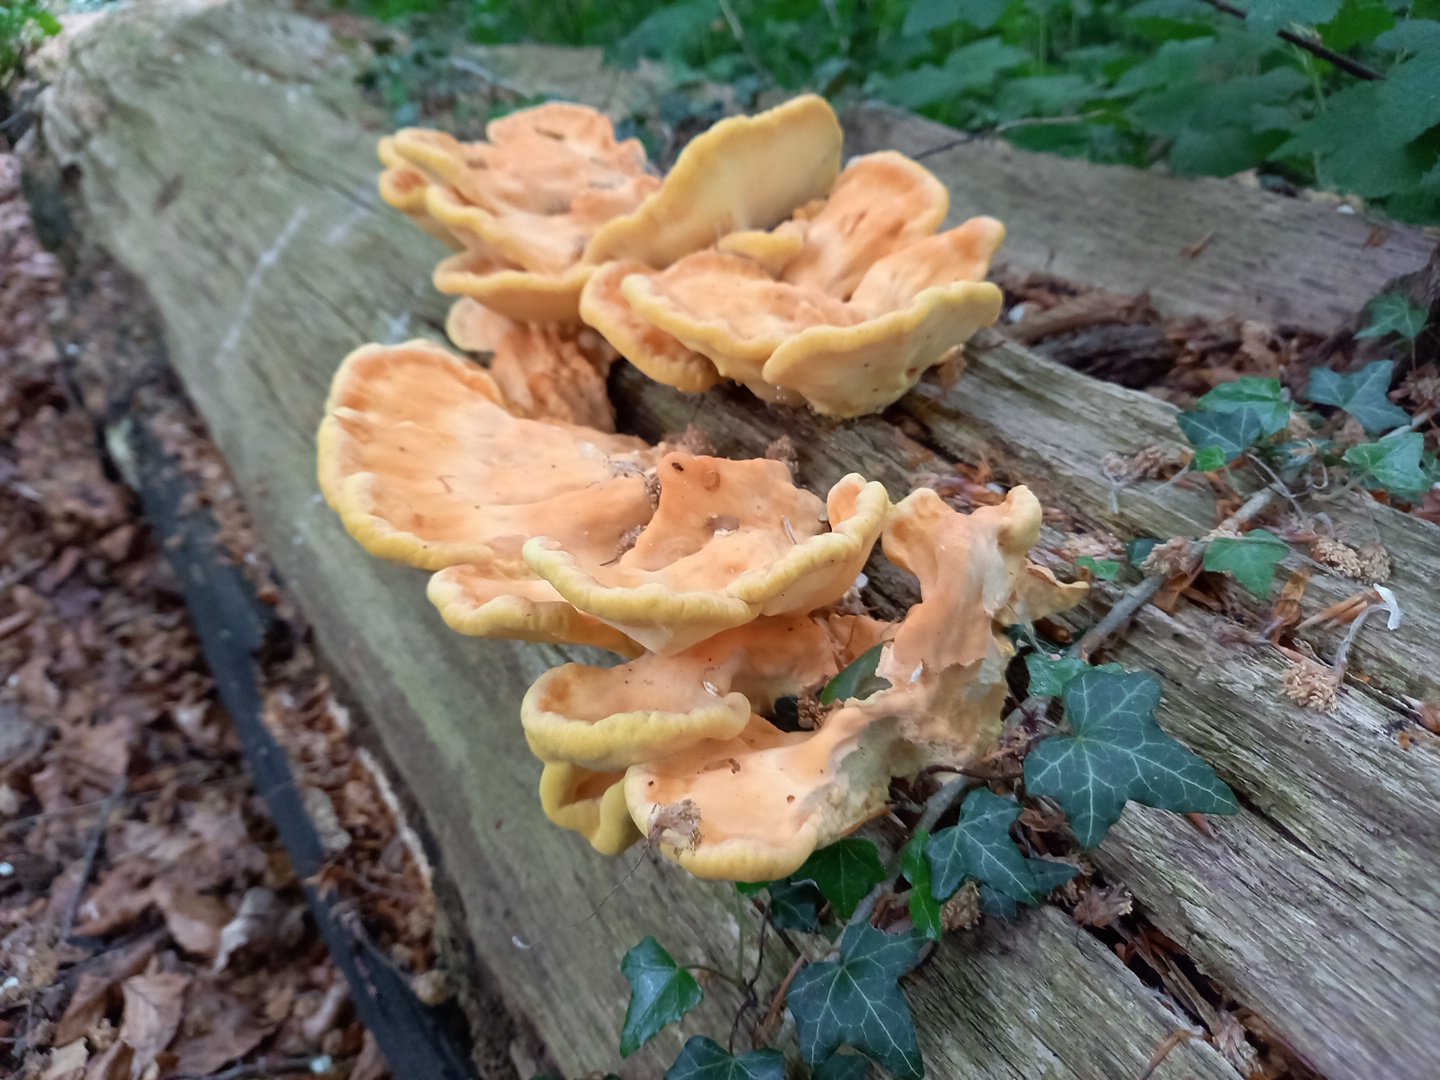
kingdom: Fungi
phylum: Basidiomycota
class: Agaricomycetes
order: Polyporales
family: Laetiporaceae
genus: Laetiporus
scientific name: Laetiporus sulphureus
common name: svovlporesvamp
